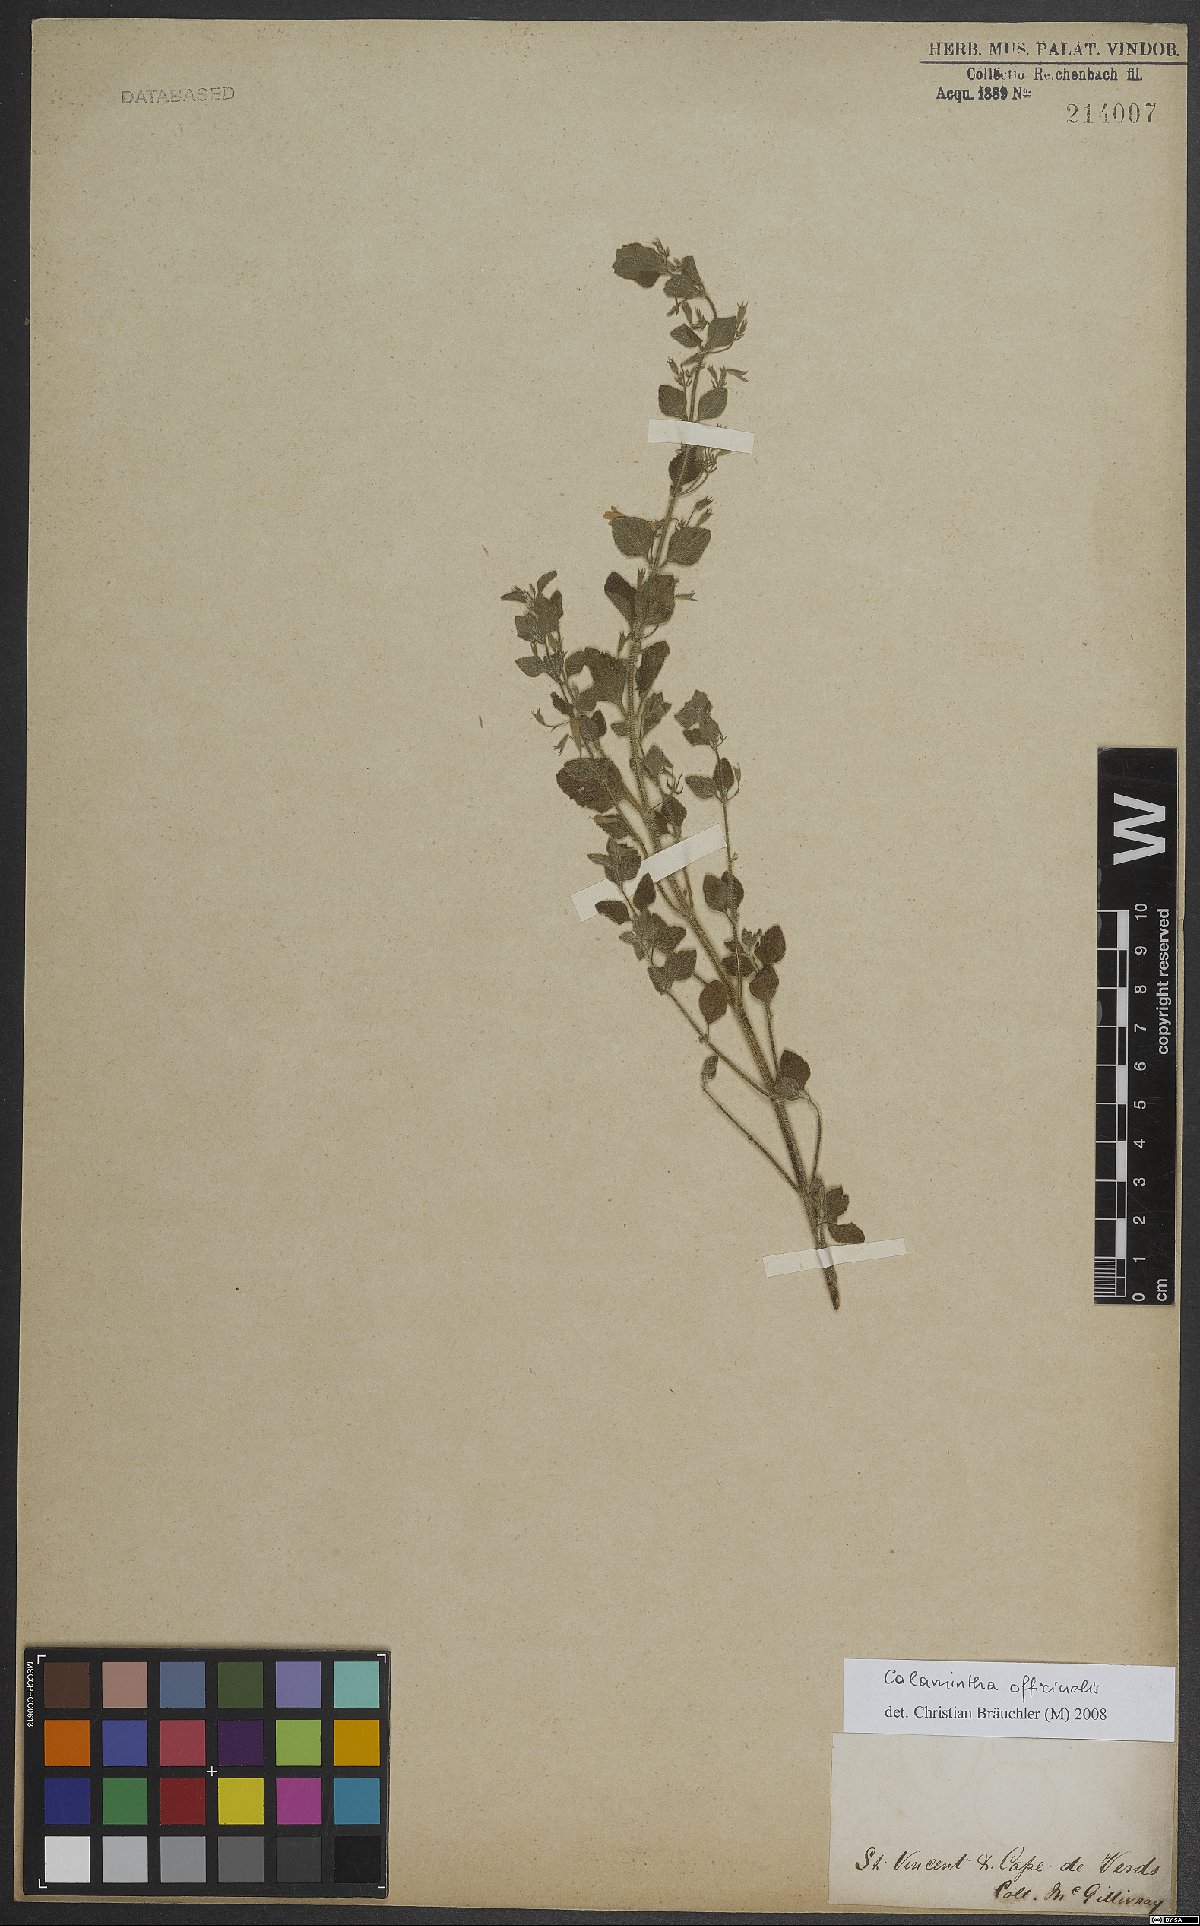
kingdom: Plantae
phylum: Tracheophyta
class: Magnoliopsida
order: Lamiales
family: Lamiaceae
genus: Clinopodium
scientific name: Clinopodium nepeta
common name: Lesser calamint
